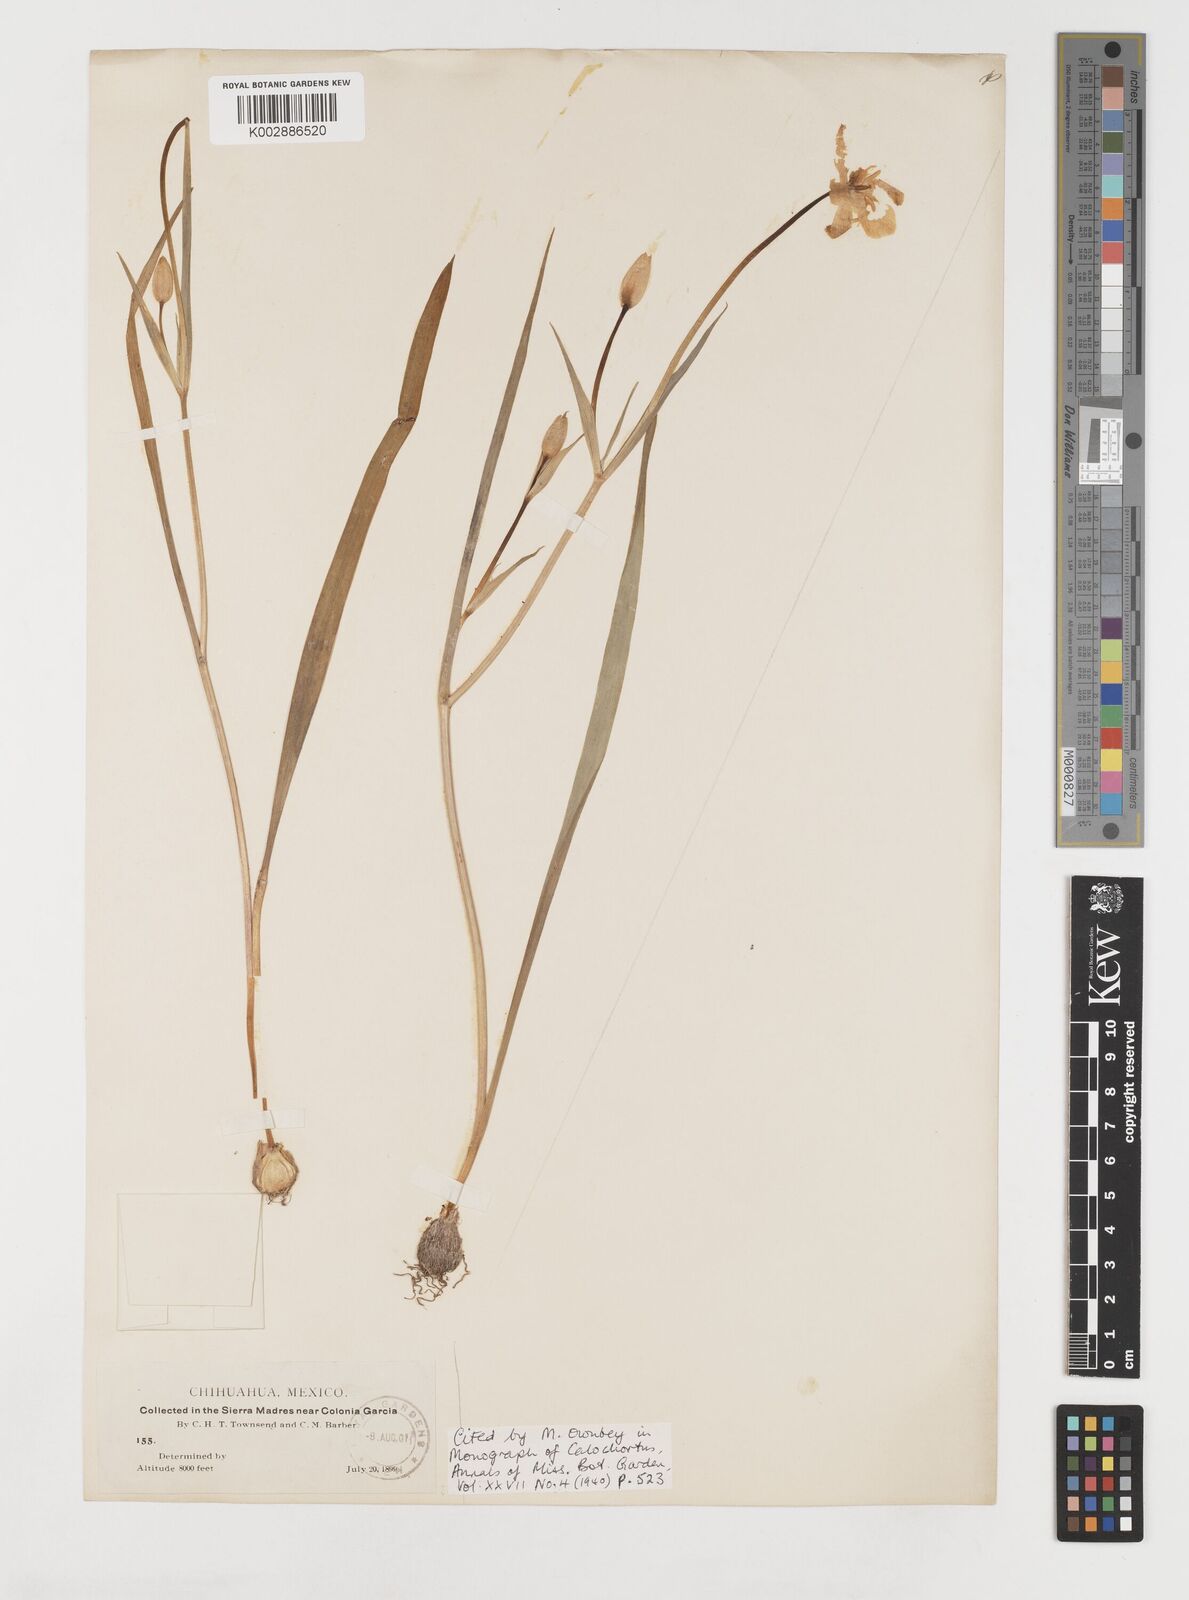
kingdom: Plantae
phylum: Tracheophyta
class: Liliopsida
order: Liliales
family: Liliaceae
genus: Calochortus
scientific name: Calochortus venustulus
